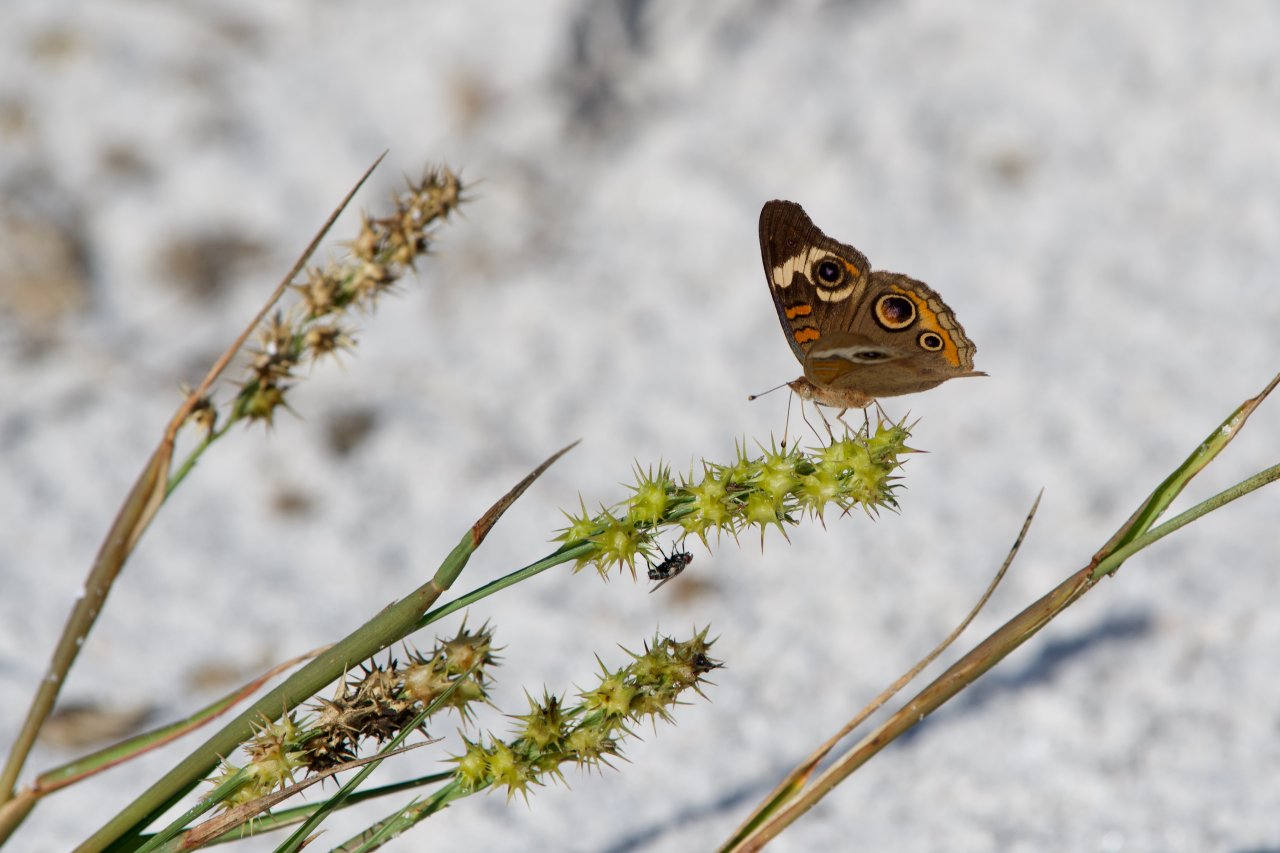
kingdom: Animalia
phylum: Arthropoda
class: Insecta
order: Lepidoptera
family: Nymphalidae
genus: Junonia
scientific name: Junonia coenia
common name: Common Buckeye
